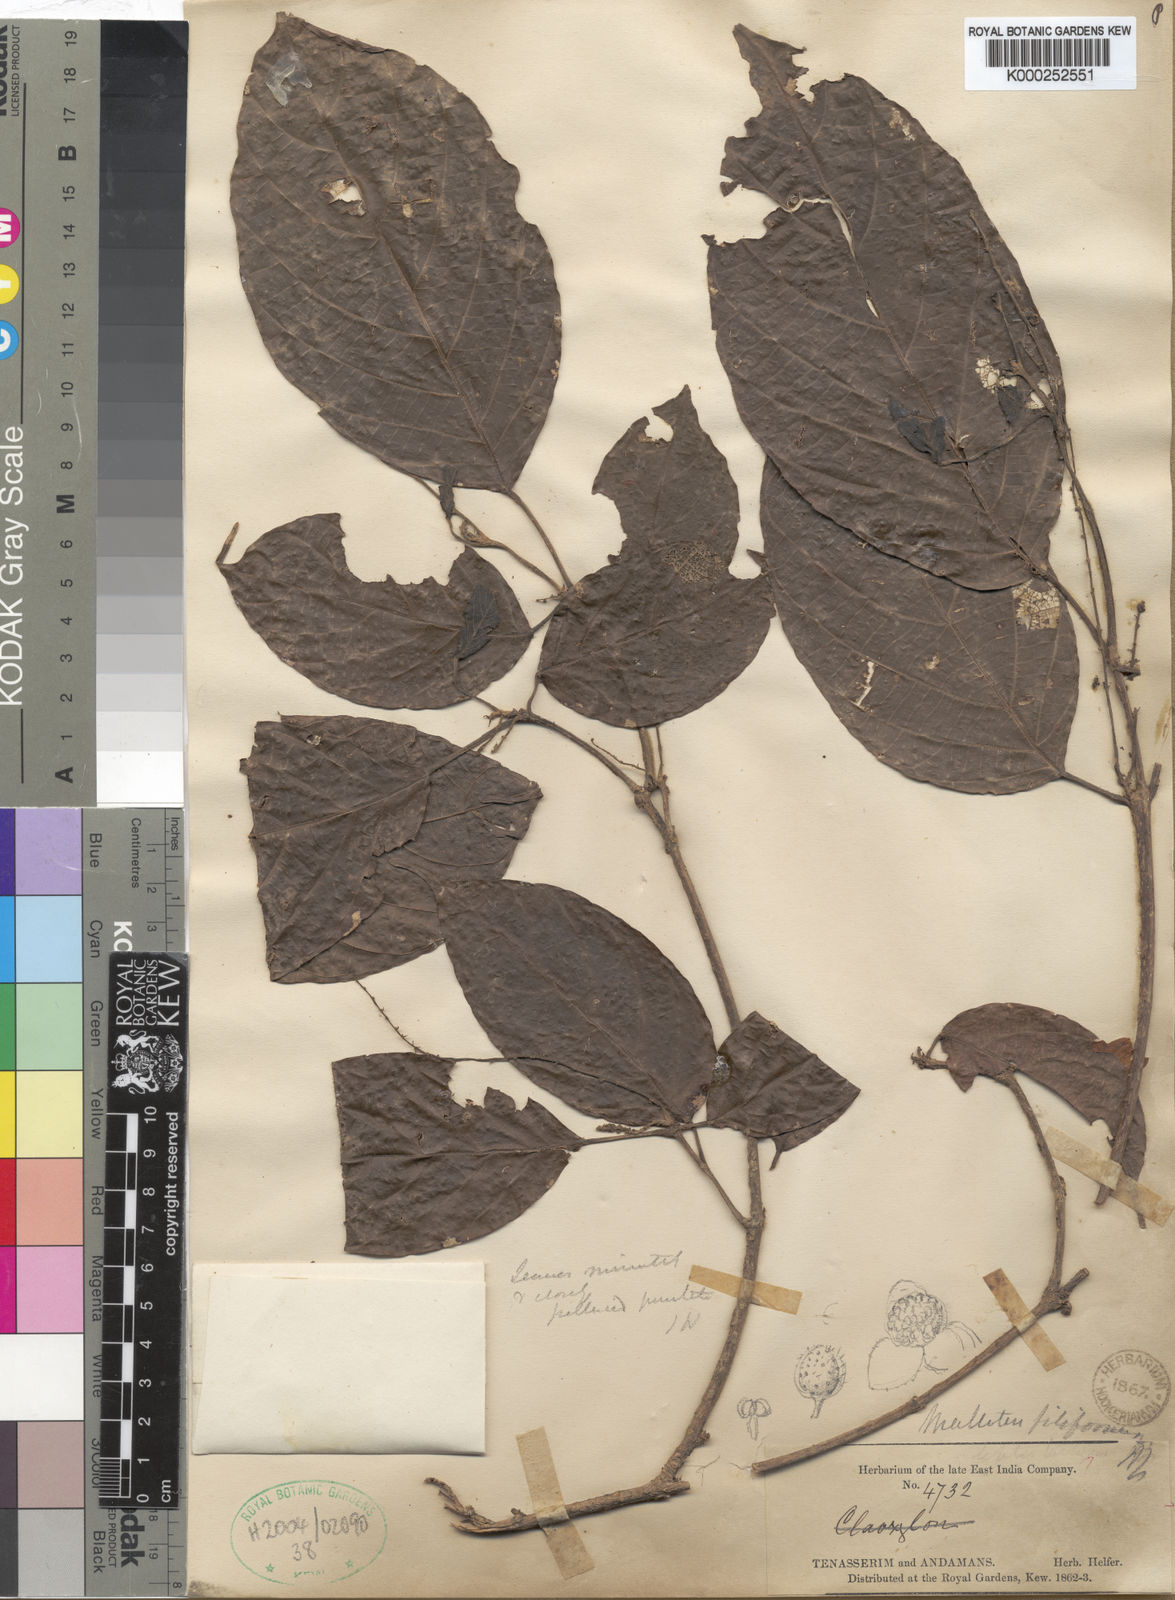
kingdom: Plantae
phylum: Tracheophyta
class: Magnoliopsida
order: Malpighiales
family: Euphorbiaceae
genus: Mallotus
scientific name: Mallotus khasianus
